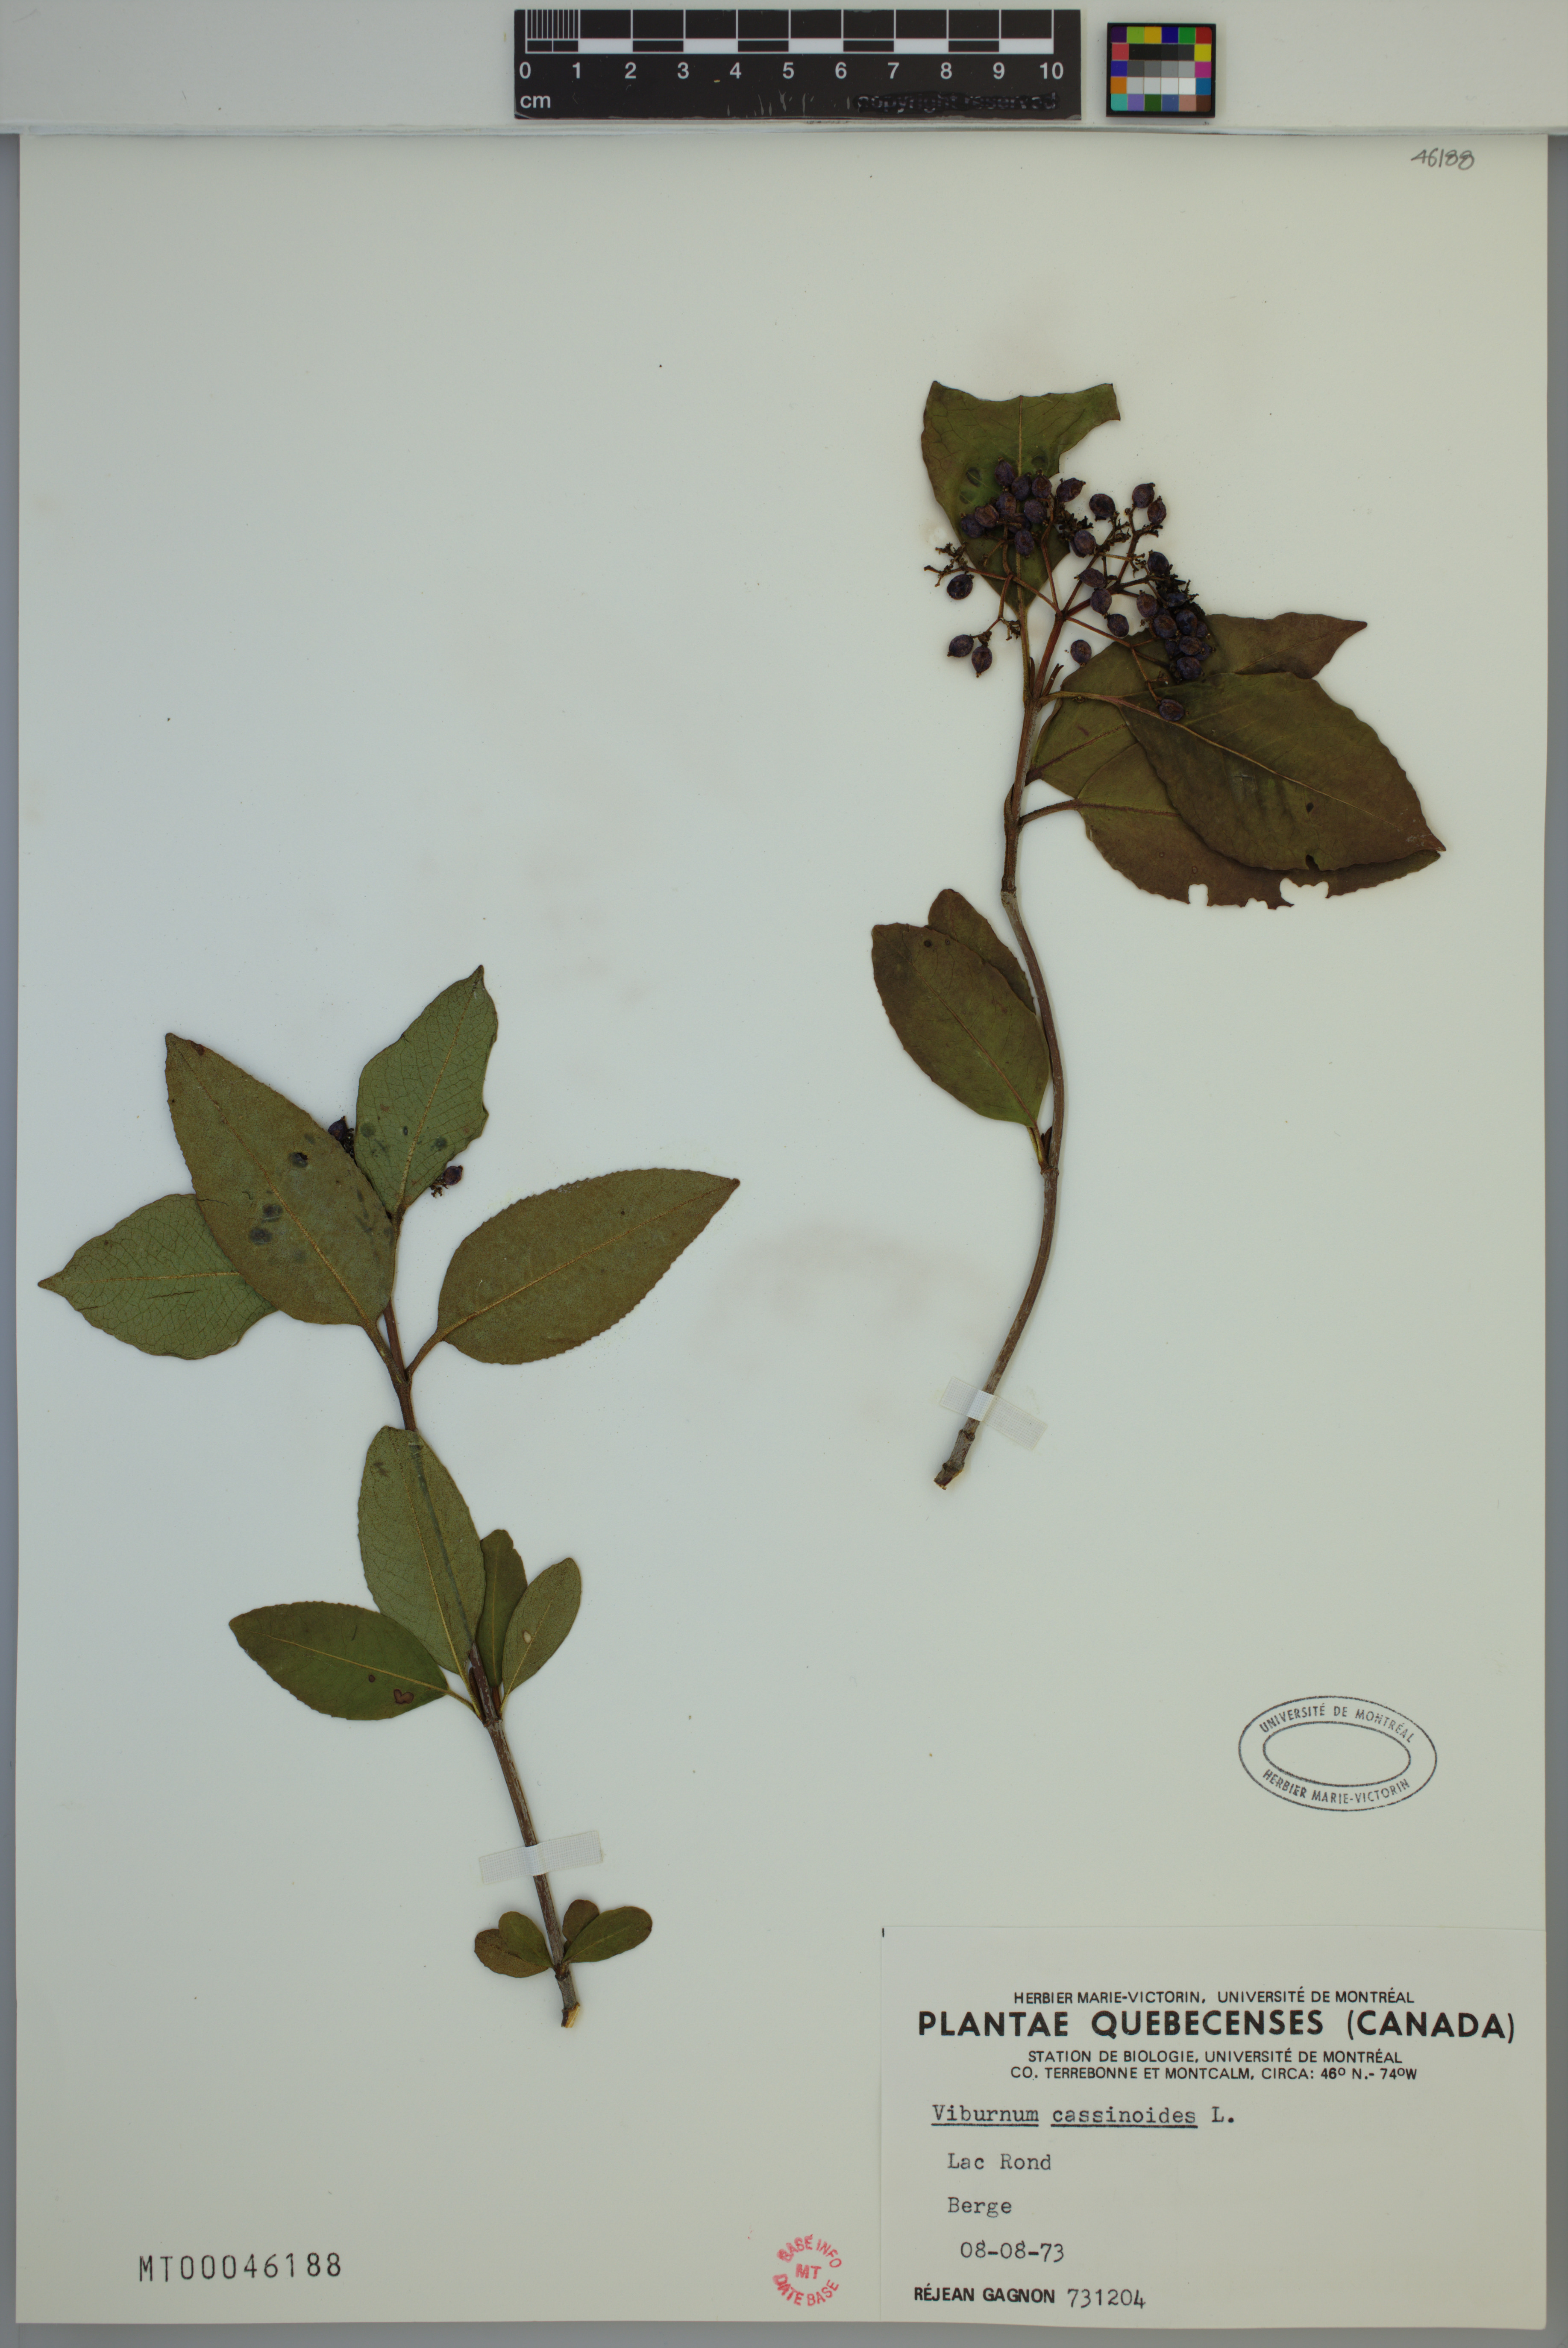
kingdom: Plantae
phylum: Tracheophyta
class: Magnoliopsida
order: Dipsacales
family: Viburnaceae
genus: Viburnum
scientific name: Viburnum cassinoides
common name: Swamp haw
